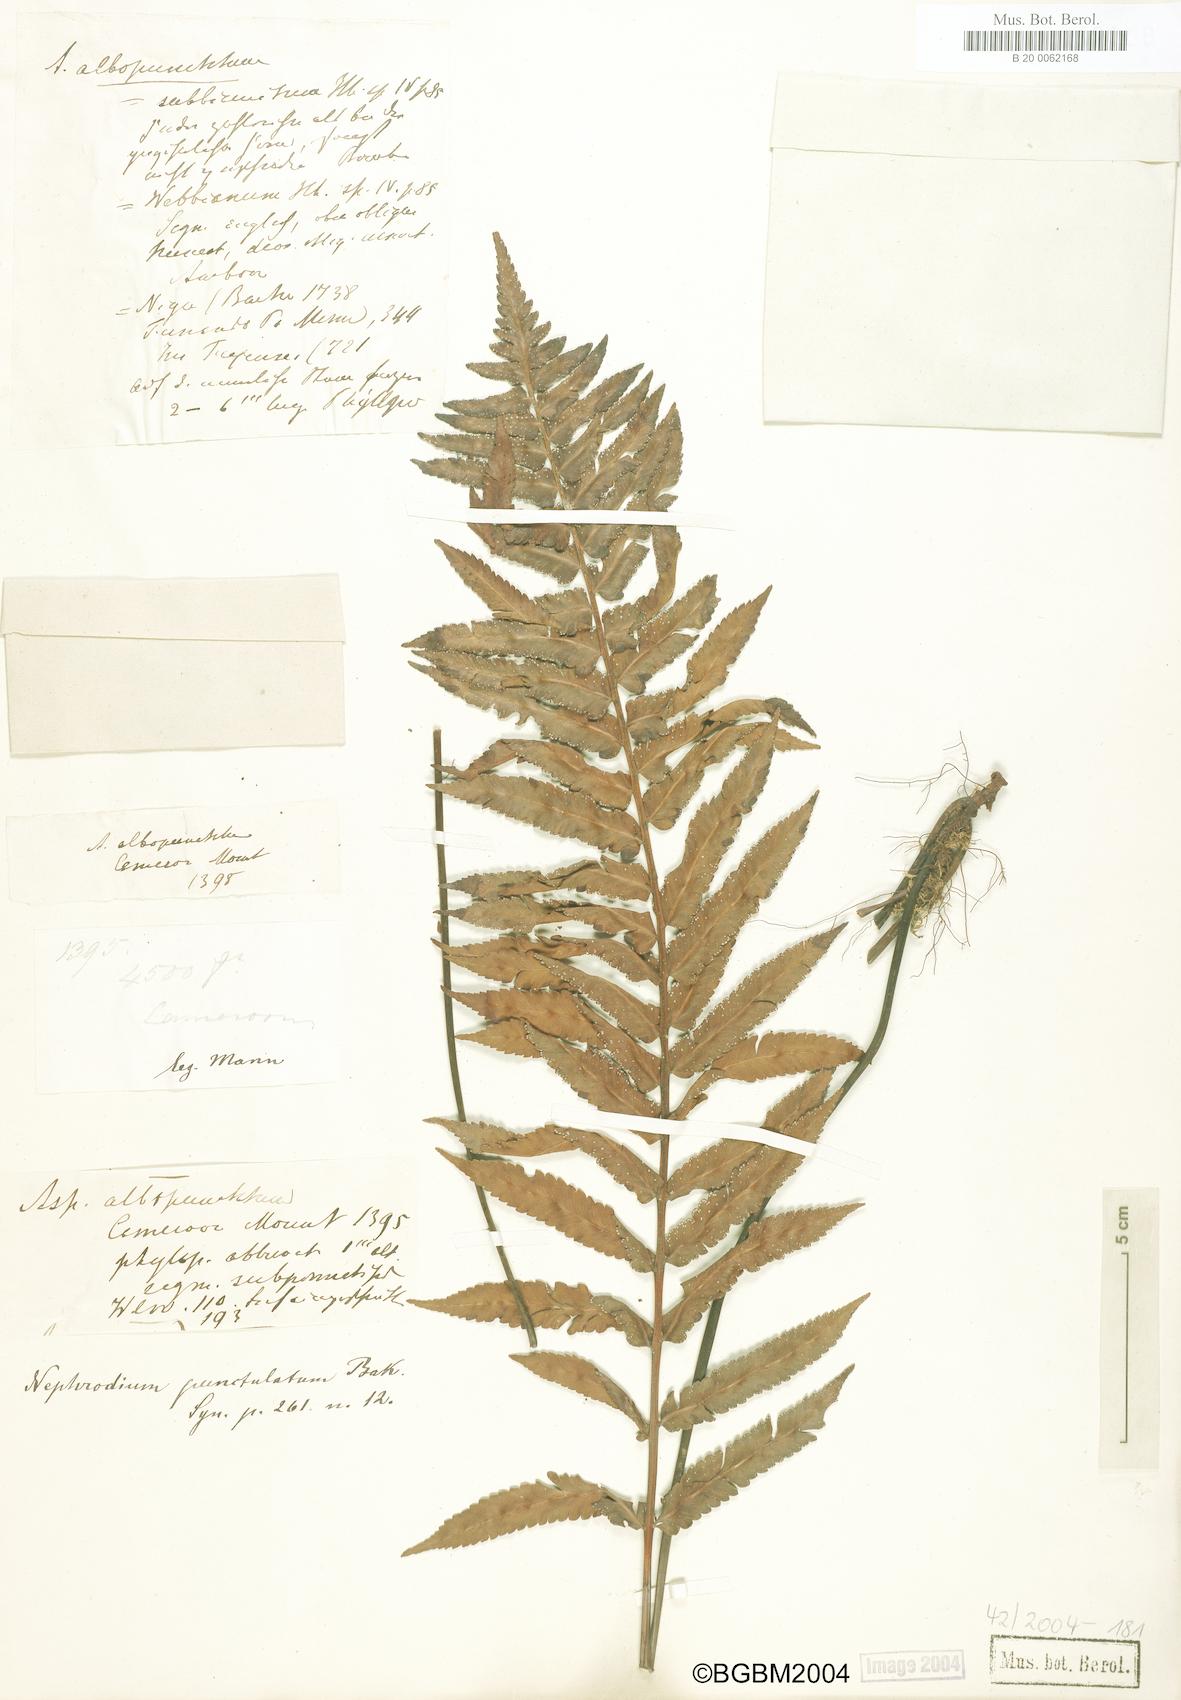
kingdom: Plantae
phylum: Tracheophyta
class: Polypodiopsida
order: Polypodiales
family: Tectariaceae
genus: Arthropteris
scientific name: Arthropteris orientalis
